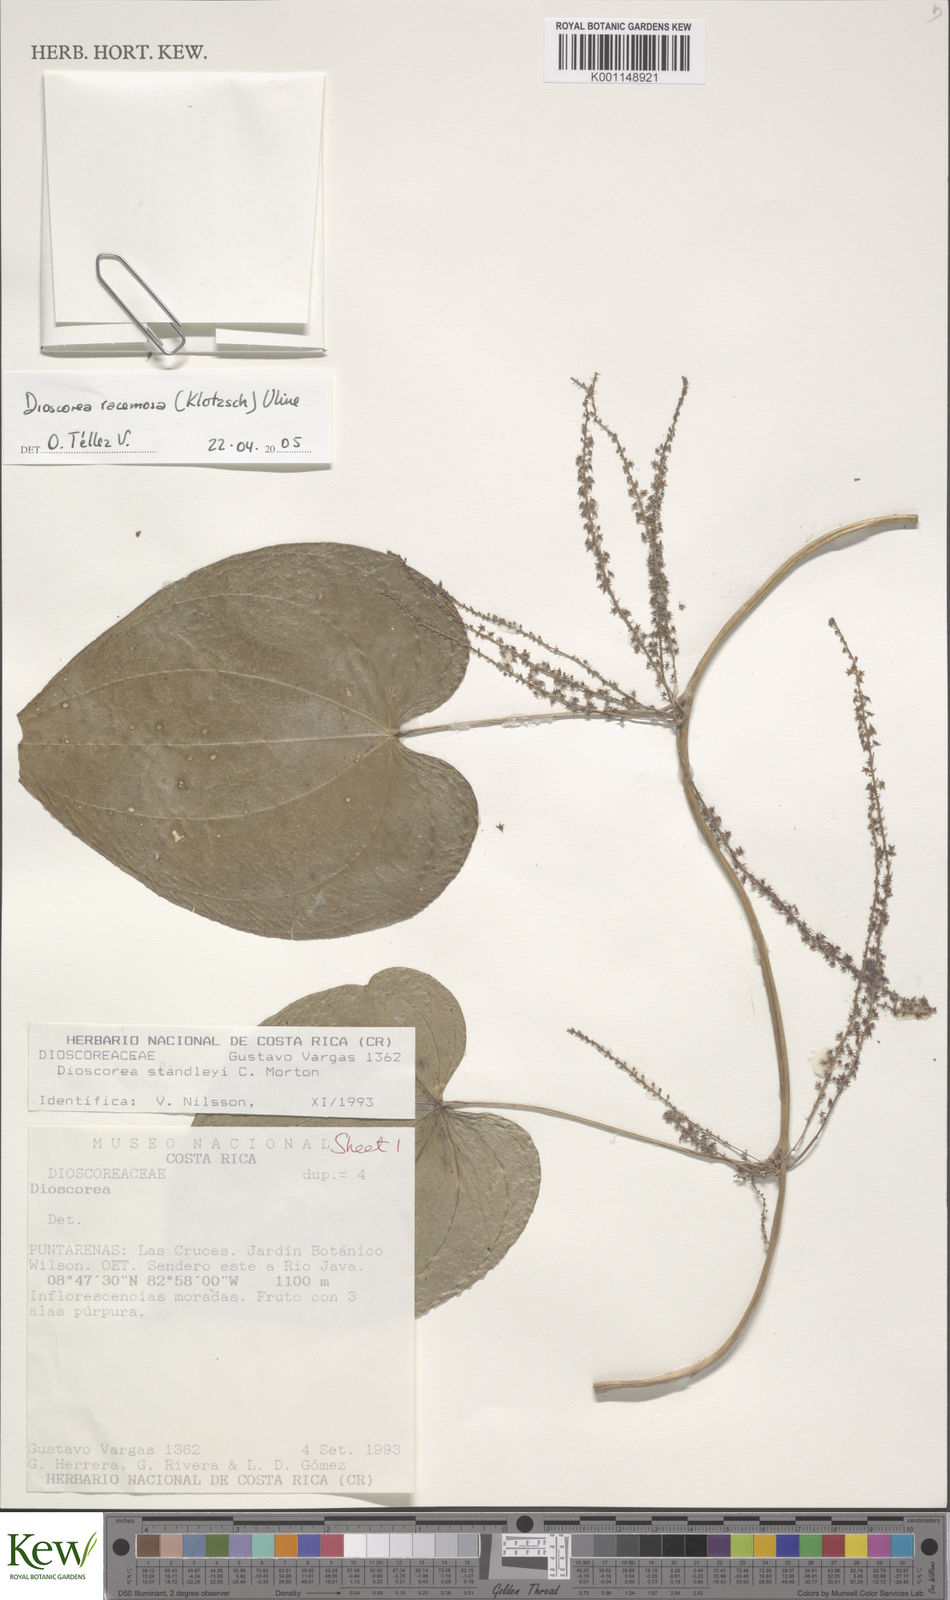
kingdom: Plantae
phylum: Tracheophyta
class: Liliopsida
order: Dioscoreales
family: Dioscoreaceae
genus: Dioscorea
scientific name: Dioscorea
